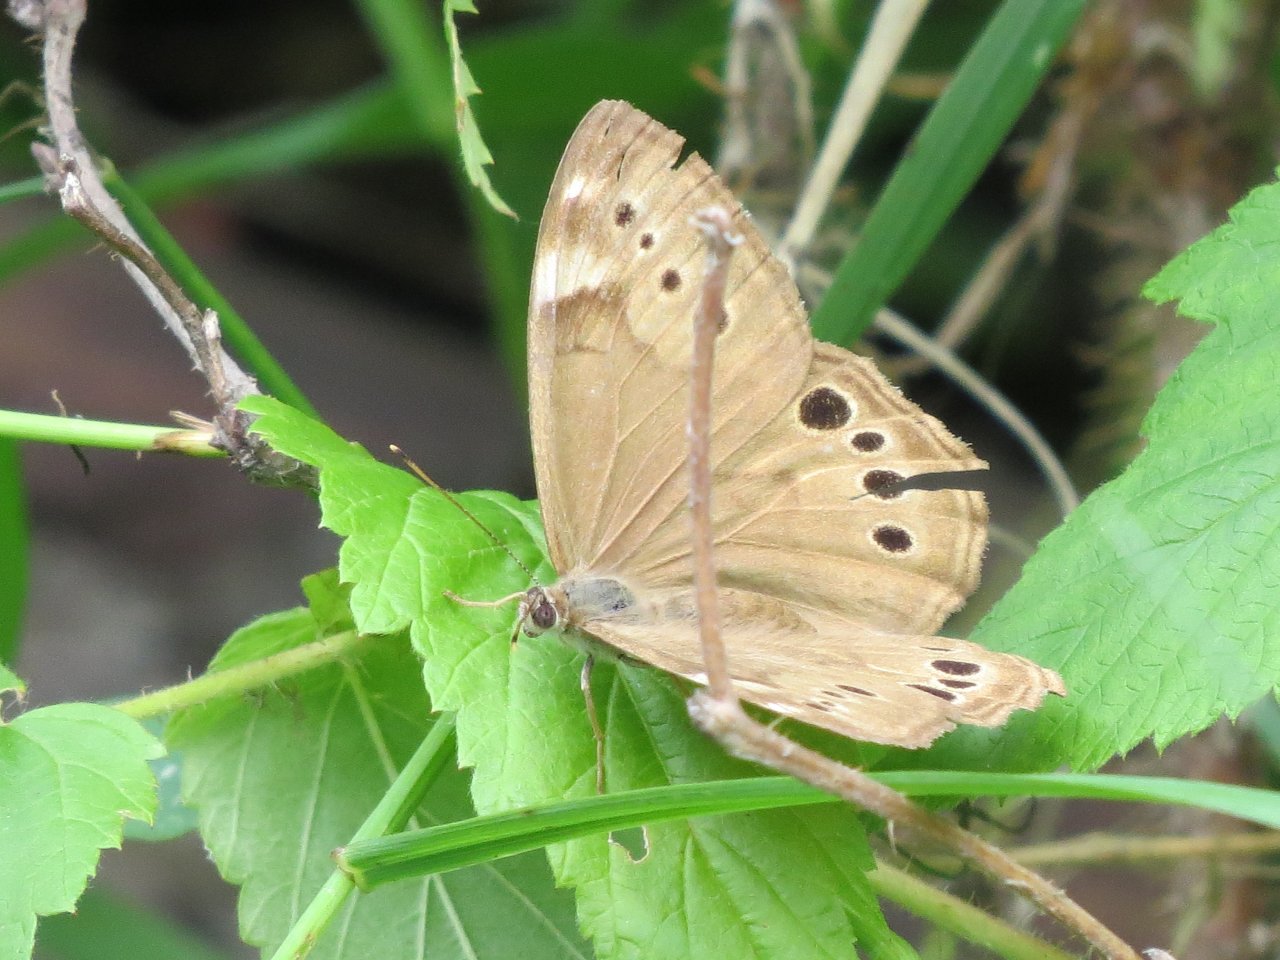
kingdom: Animalia
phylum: Arthropoda
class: Insecta
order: Lepidoptera
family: Nymphalidae
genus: Lethe
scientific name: Lethe anthedon
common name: Northern Pearly-Eye
